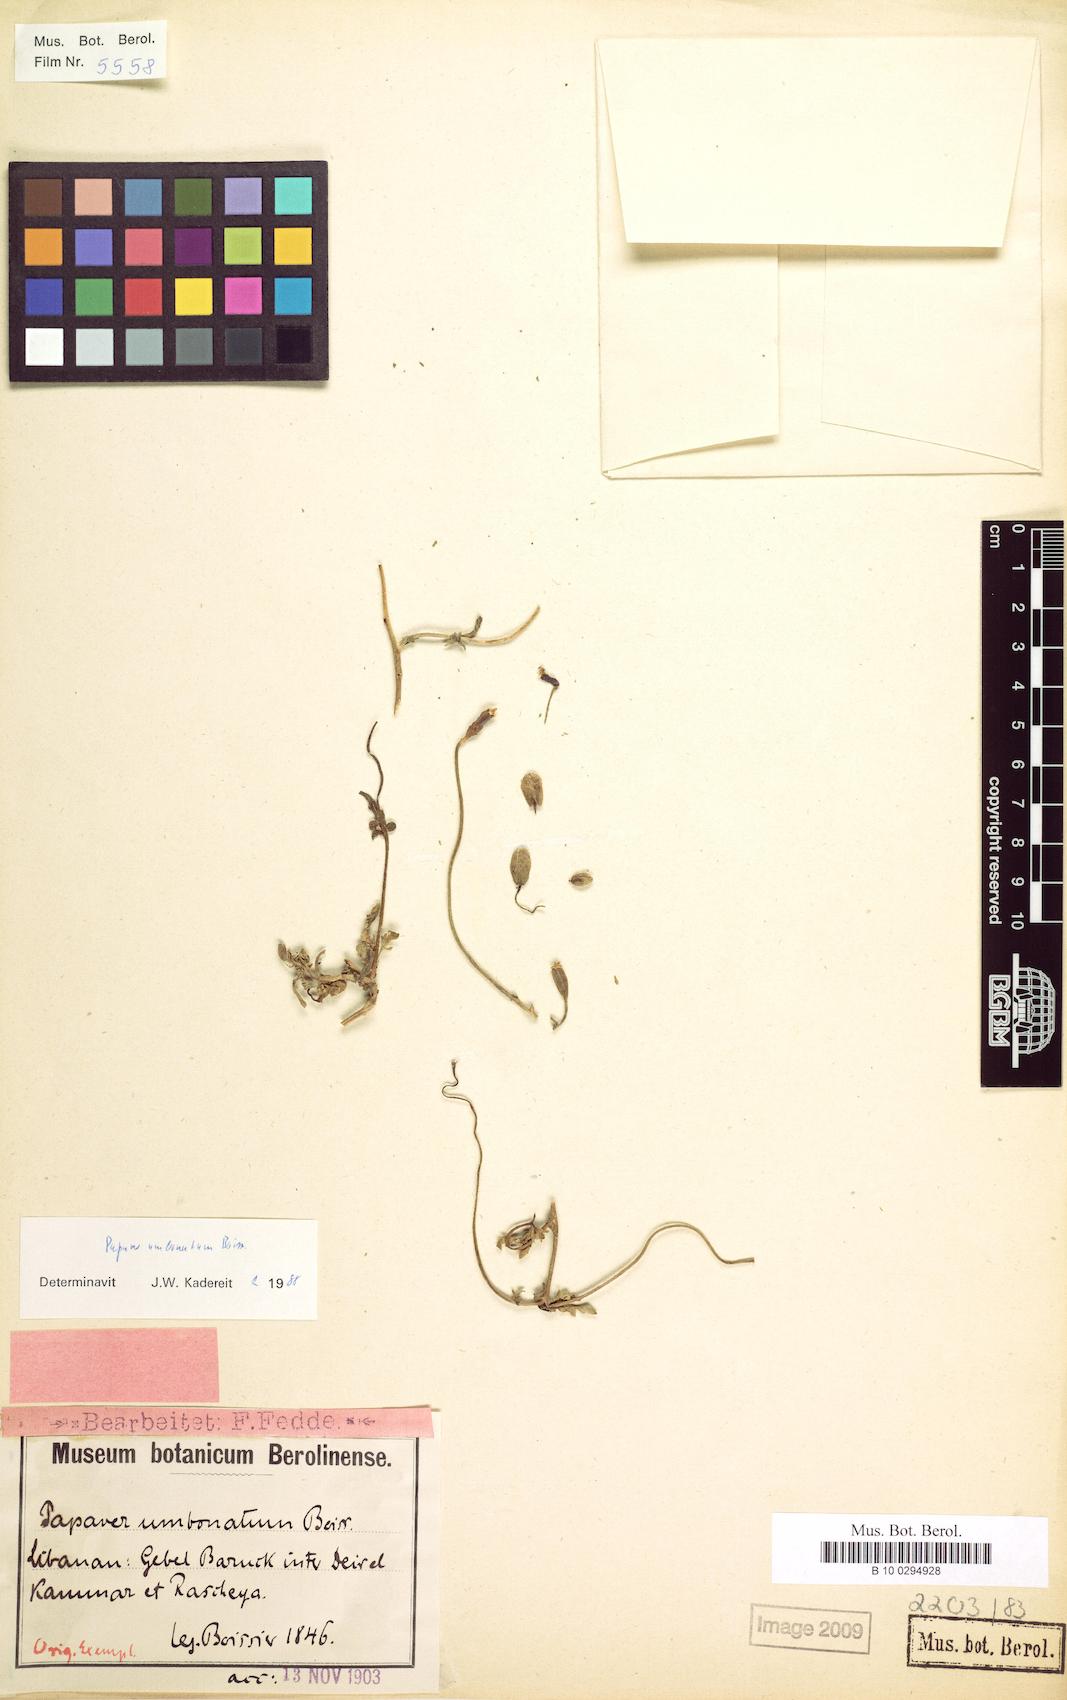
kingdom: Plantae
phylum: Tracheophyta
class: Magnoliopsida
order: Ranunculales
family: Papaveraceae
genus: Papaver
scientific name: Papaver umbonatum
